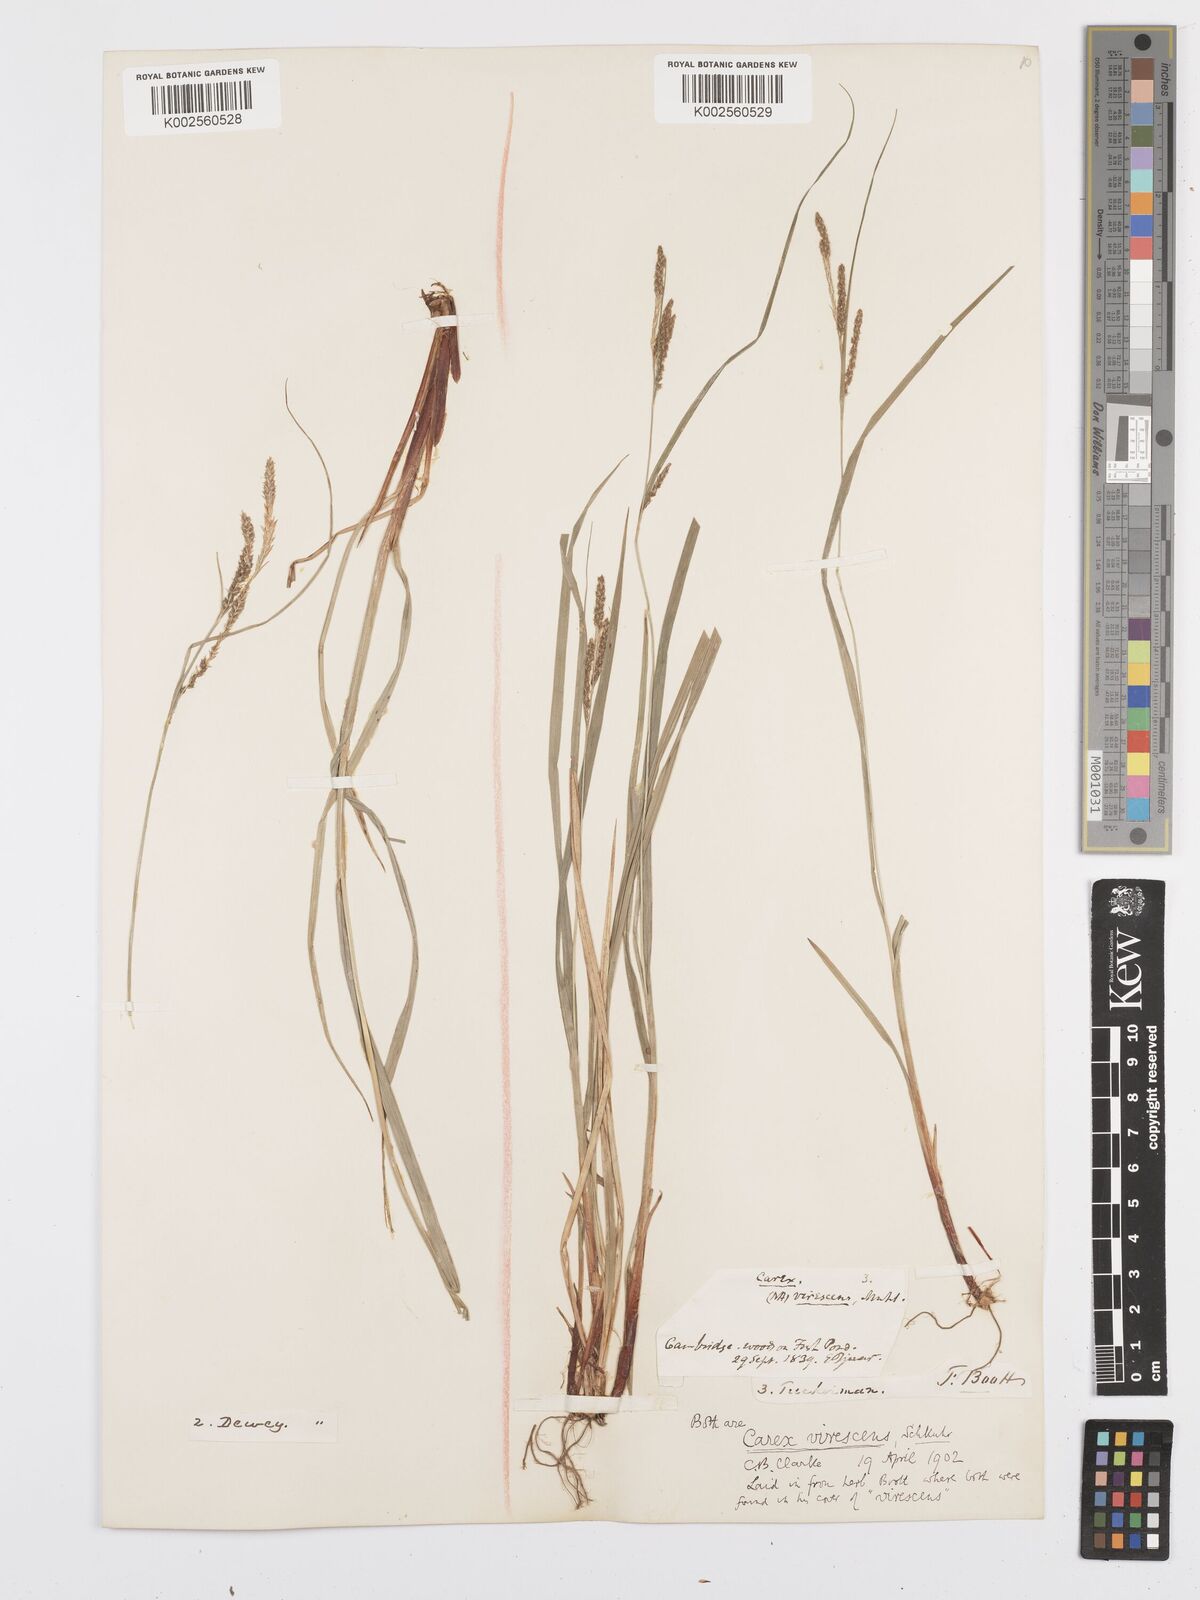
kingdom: Plantae
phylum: Tracheophyta
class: Liliopsida
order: Poales
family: Cyperaceae
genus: Carex
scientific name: Carex virescens
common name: Ribbed sedge
